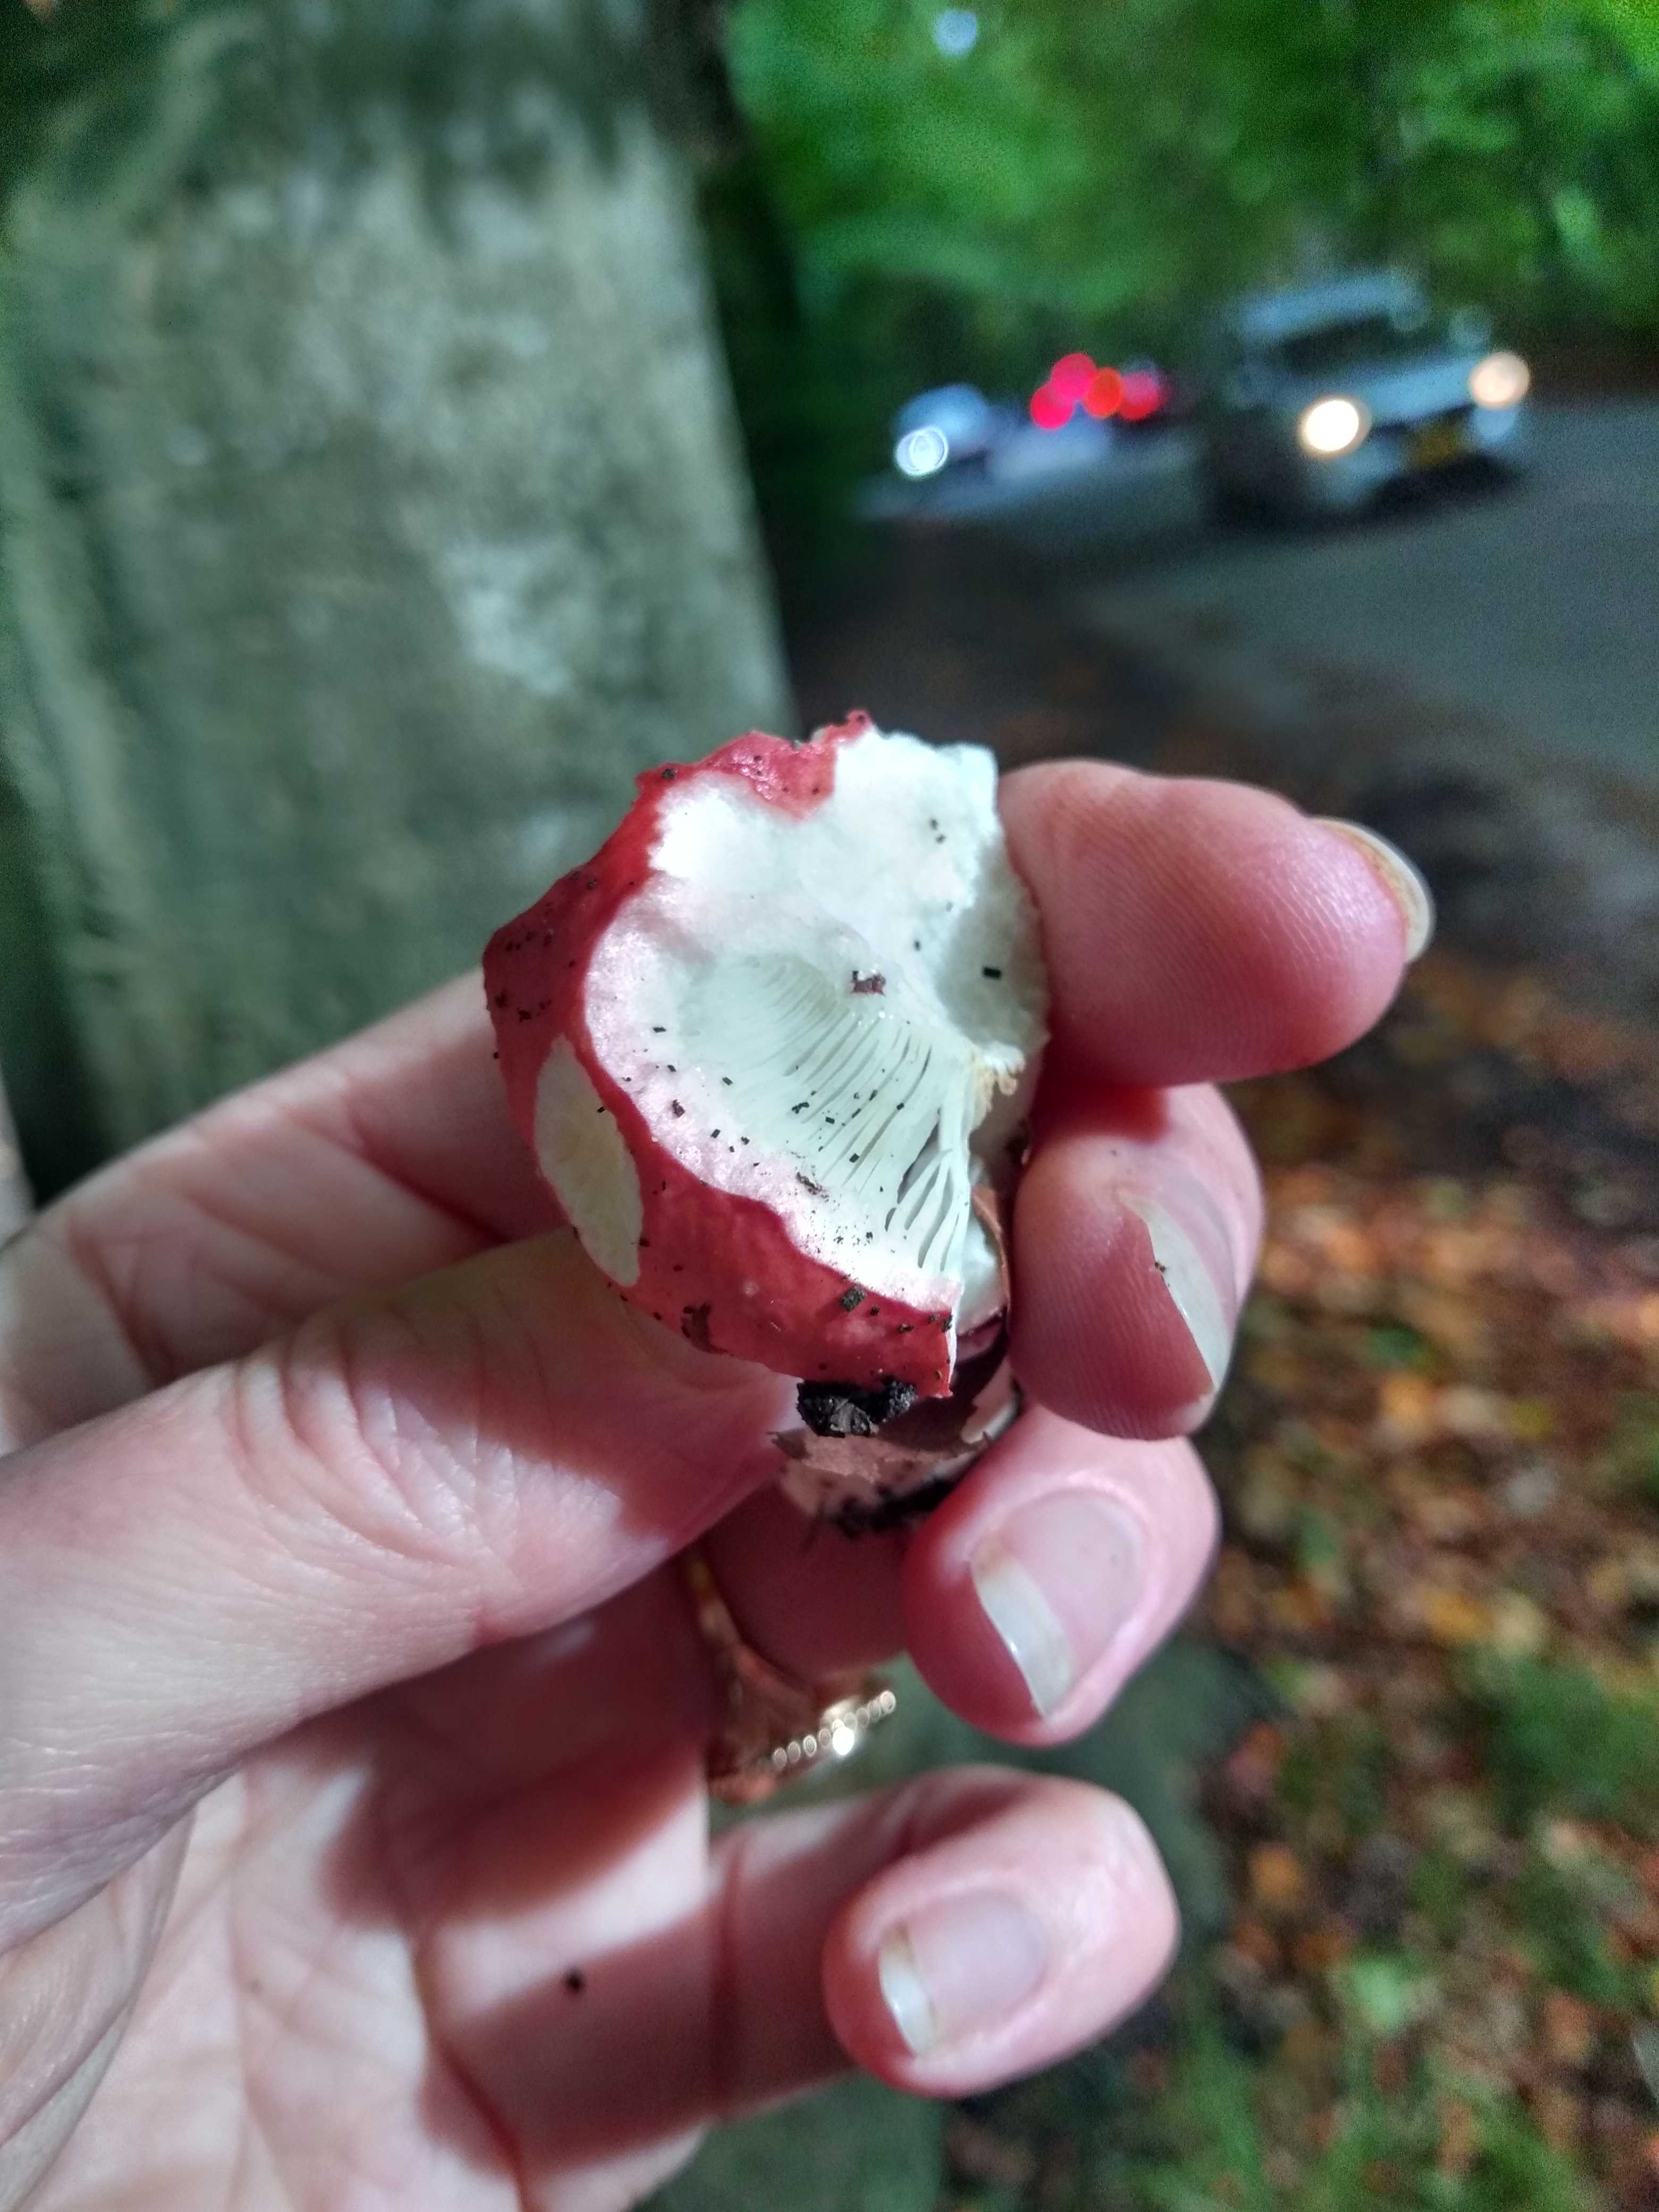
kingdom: Fungi
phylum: Basidiomycota
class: Agaricomycetes
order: Russulales
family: Russulaceae
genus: Russula
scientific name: Russula nobilis
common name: lille gift-skørhat
